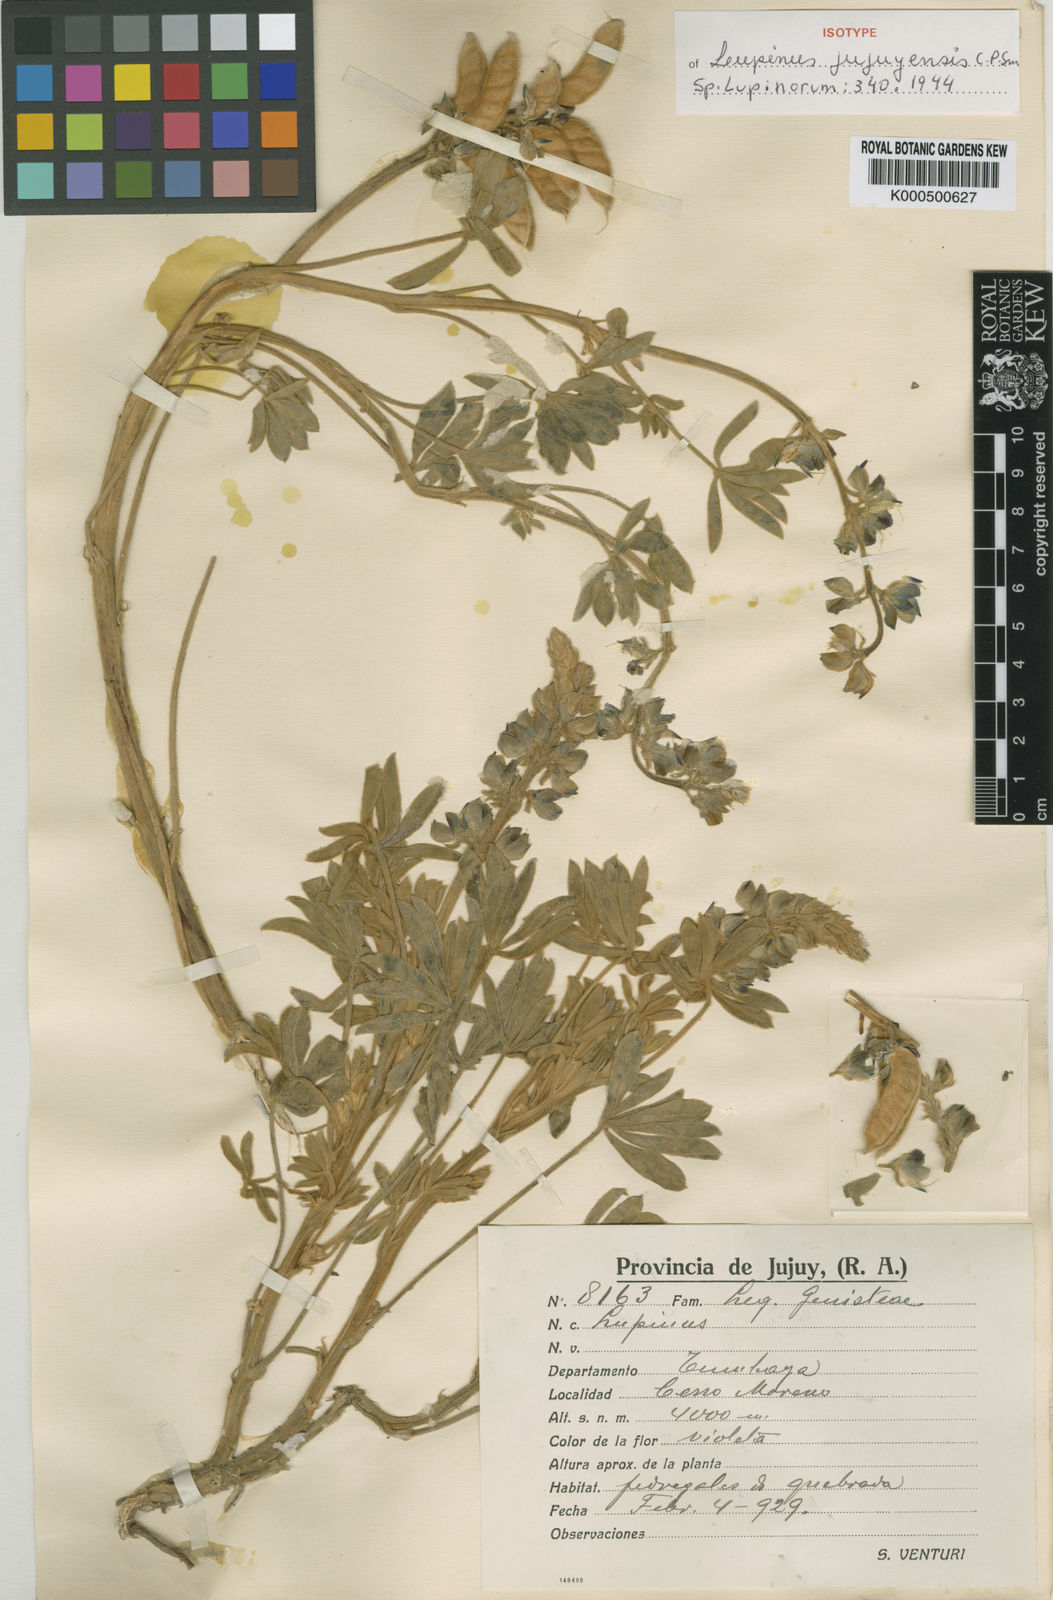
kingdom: Plantae
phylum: Tracheophyta
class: Magnoliopsida
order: Fabales
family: Fabaceae
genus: Lupinus
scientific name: Lupinus jujuyensis
